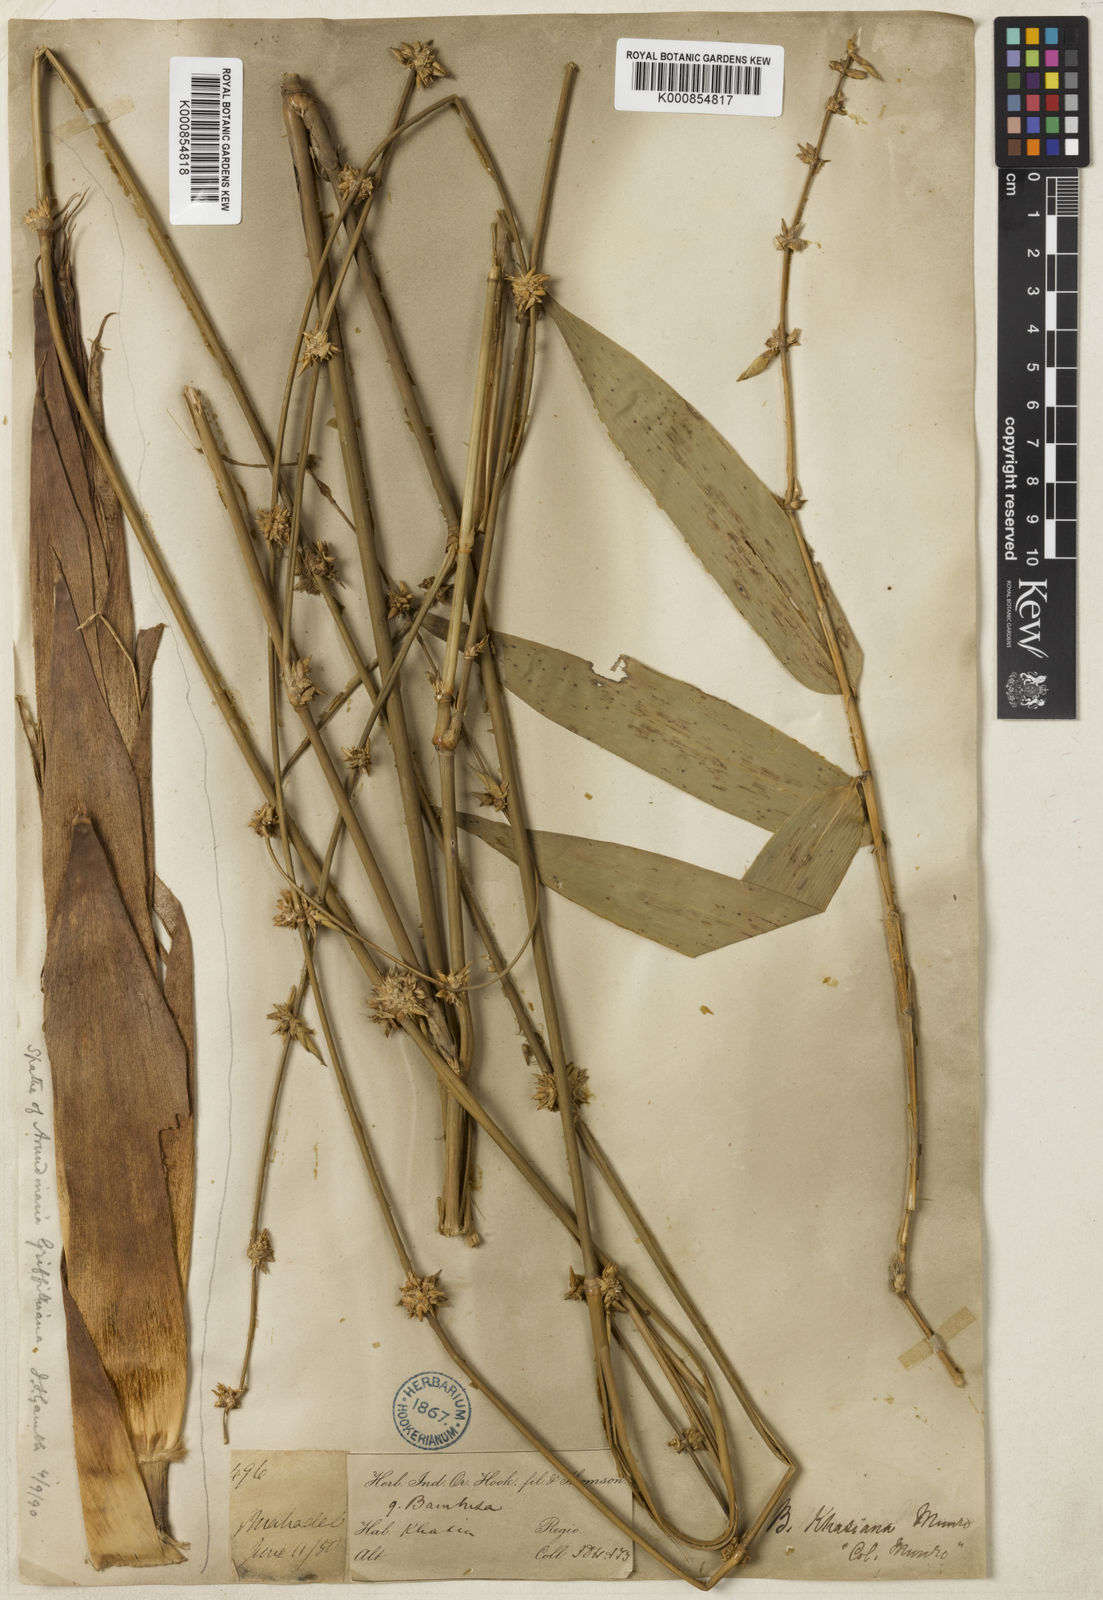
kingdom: Plantae
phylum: Tracheophyta
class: Liliopsida
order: Poales
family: Poaceae
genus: Bambusa
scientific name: Bambusa khasiana
